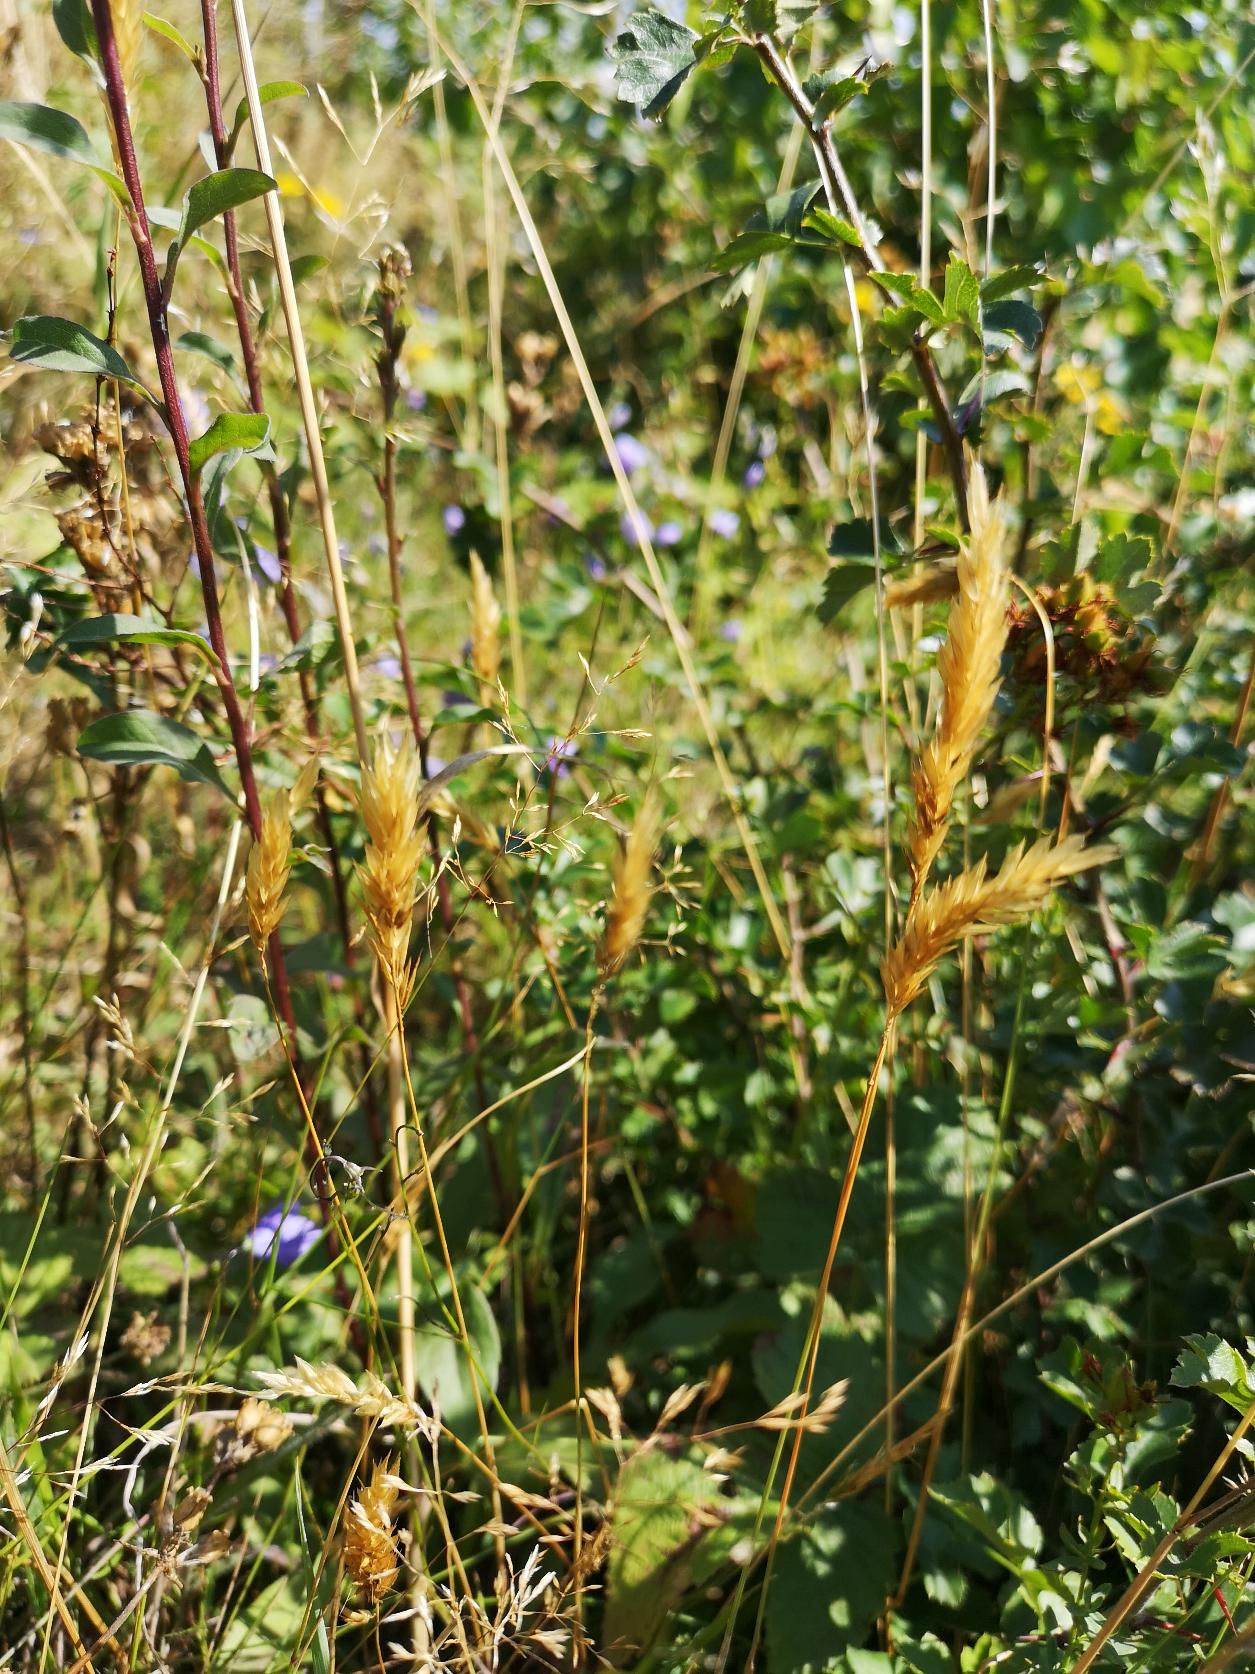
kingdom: Plantae
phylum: Tracheophyta
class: Liliopsida
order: Poales
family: Poaceae
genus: Anthoxanthum
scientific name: Anthoxanthum odoratum
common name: Vellugtende gulaks
